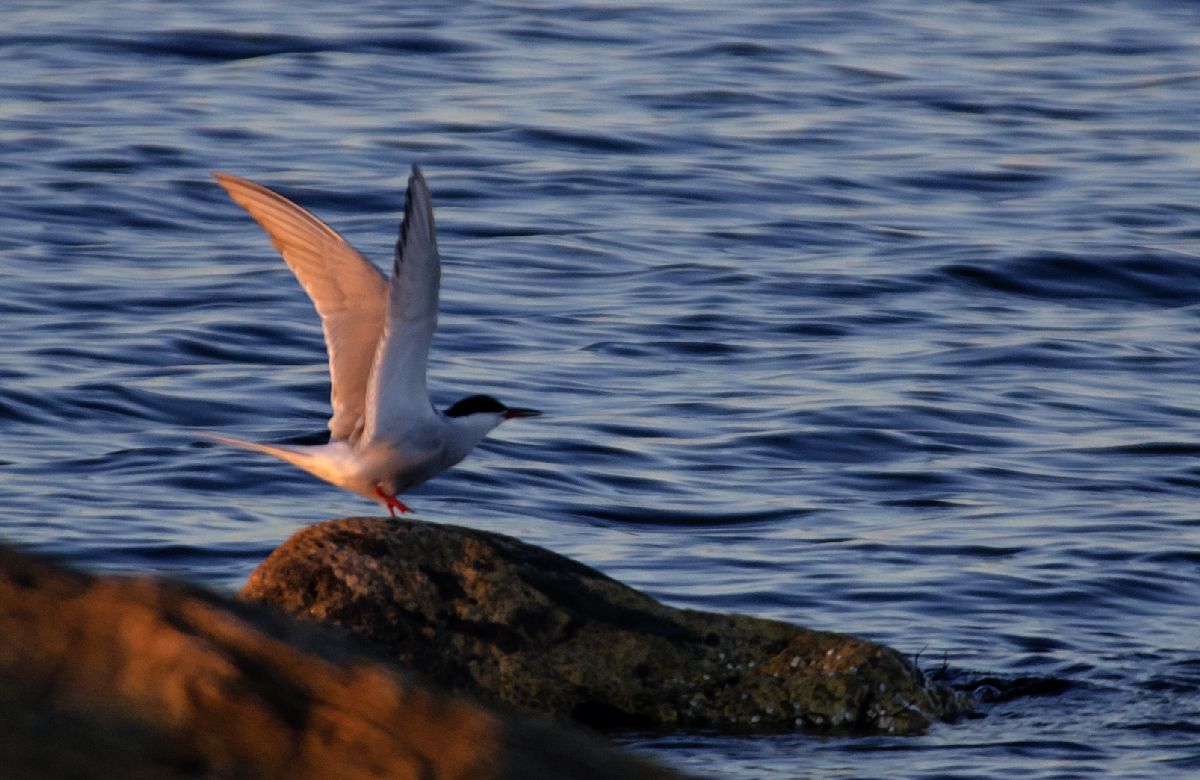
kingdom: Animalia
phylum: Chordata
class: Aves
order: Charadriiformes
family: Laridae
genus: Sterna
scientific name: Sterna hirundo
